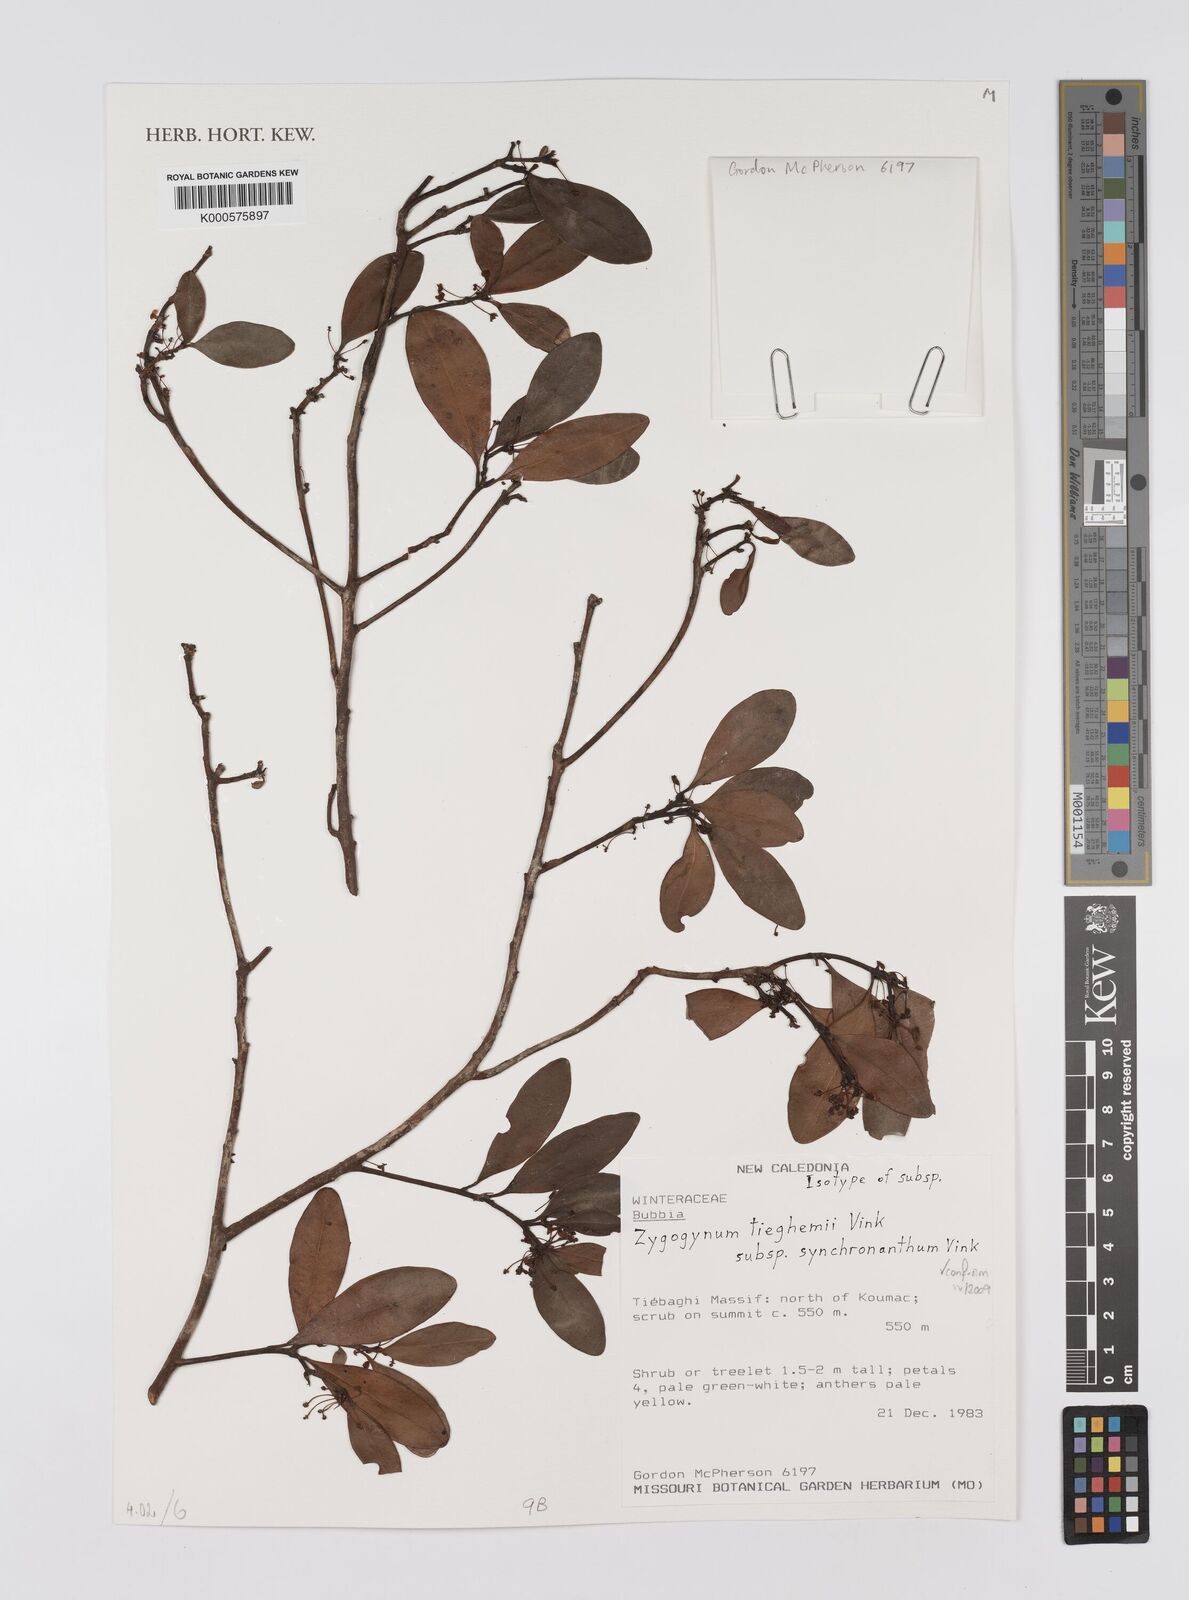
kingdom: Plantae
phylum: Tracheophyta
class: Magnoliopsida
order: Canellales
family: Winteraceae
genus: Zygogynum
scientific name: Zygogynum tieghemii
